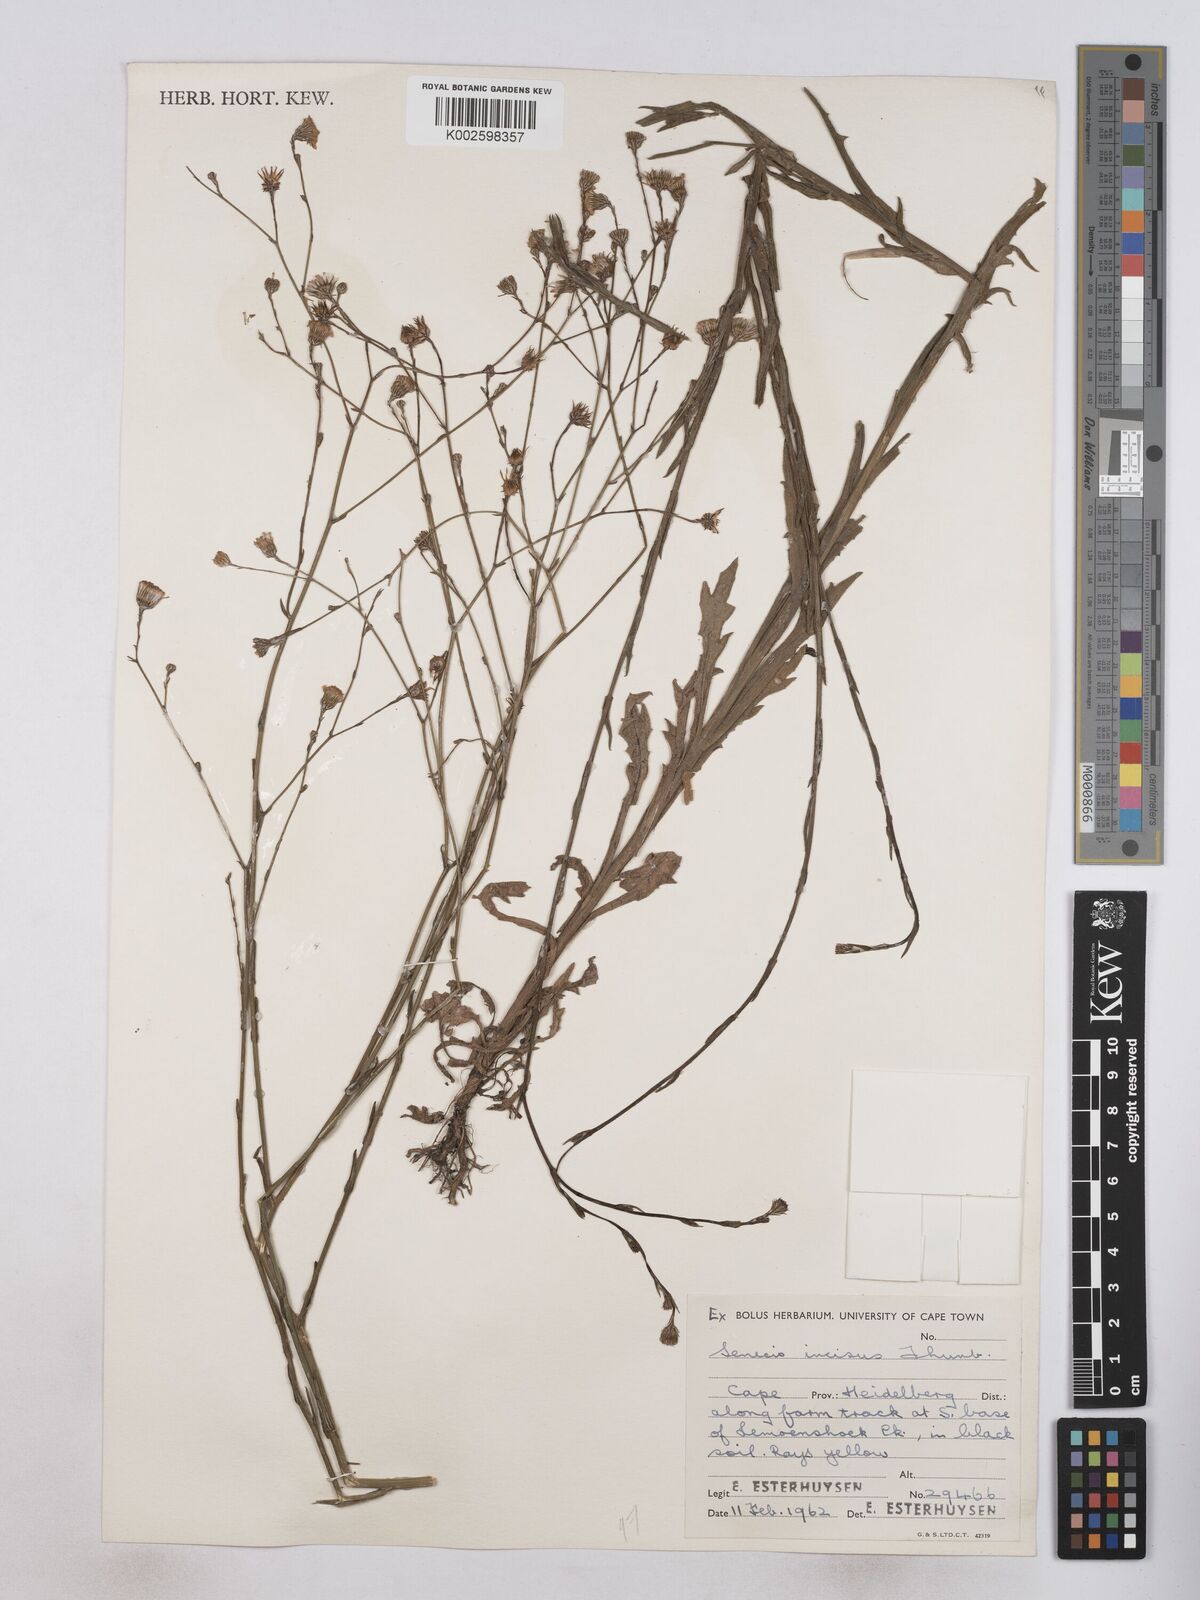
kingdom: Plantae
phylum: Tracheophyta
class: Magnoliopsida
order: Asterales
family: Asteraceae
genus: Senecio
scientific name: Senecio phalachrolaenus
